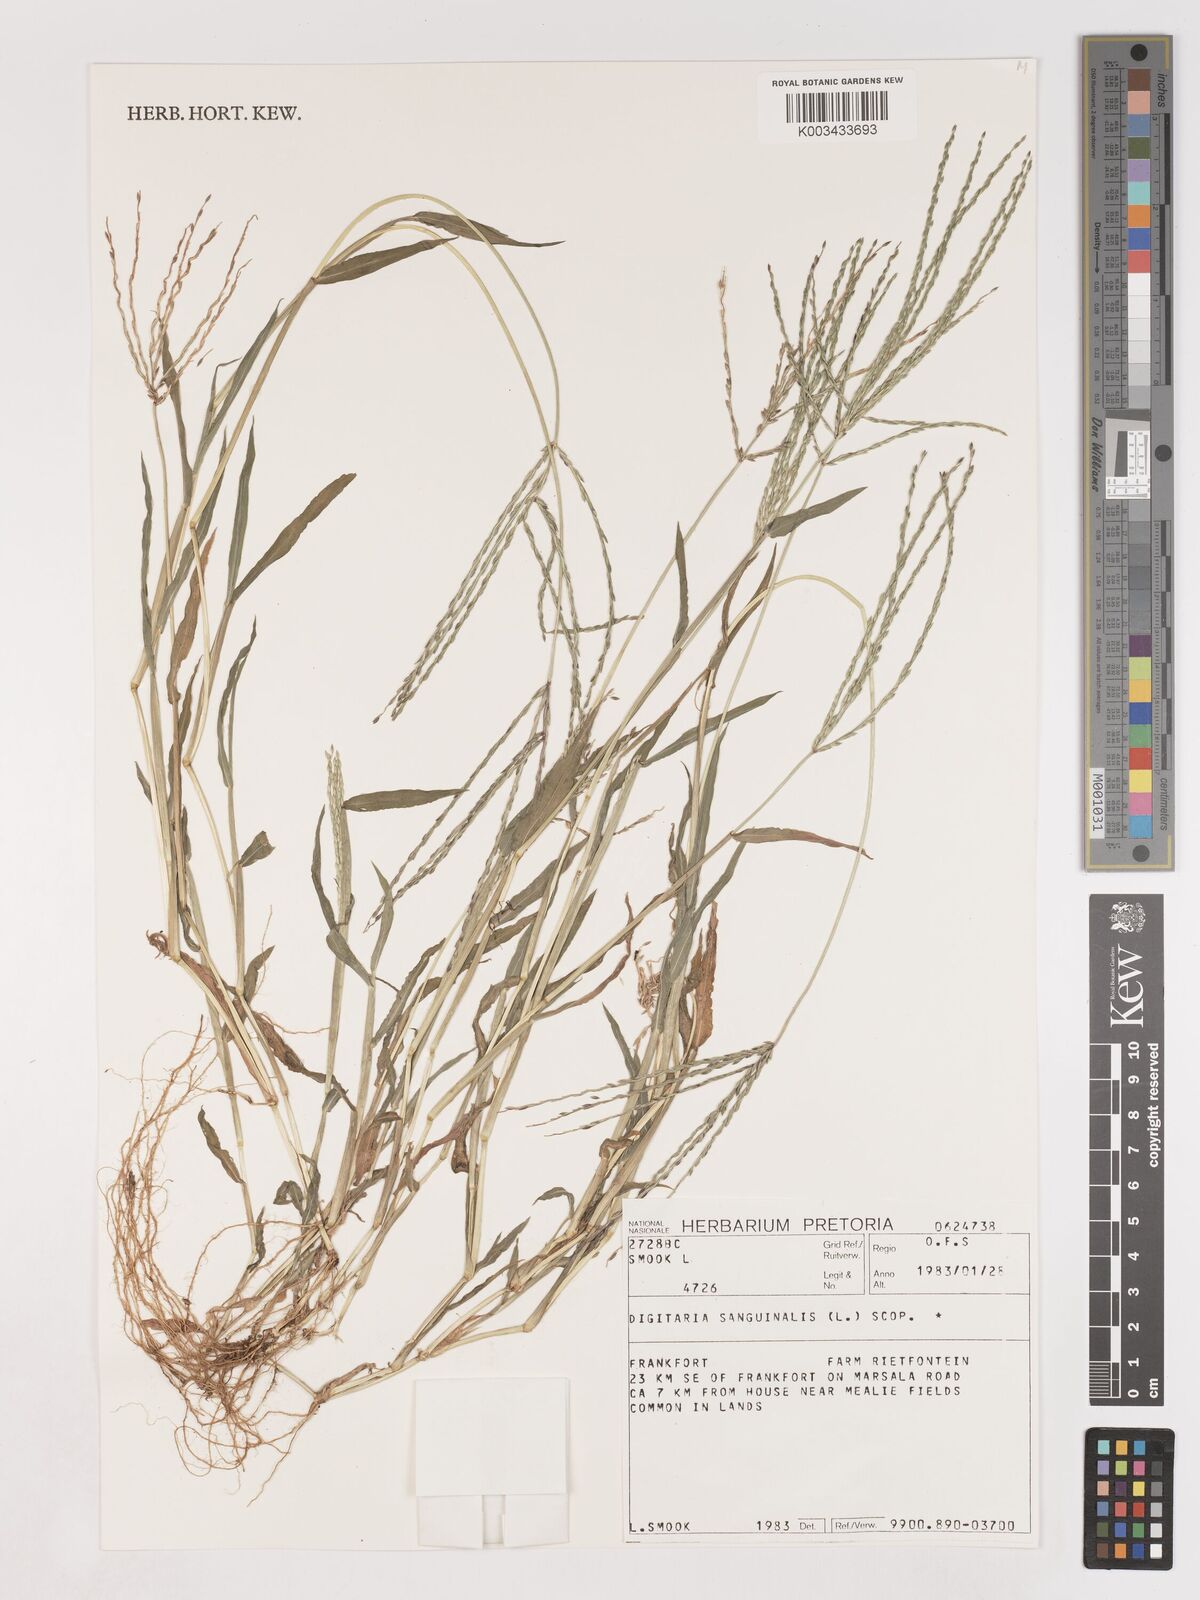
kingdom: Plantae
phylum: Tracheophyta
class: Liliopsida
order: Poales
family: Poaceae
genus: Digitaria
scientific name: Digitaria sanguinalis
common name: Hairy crabgrass
